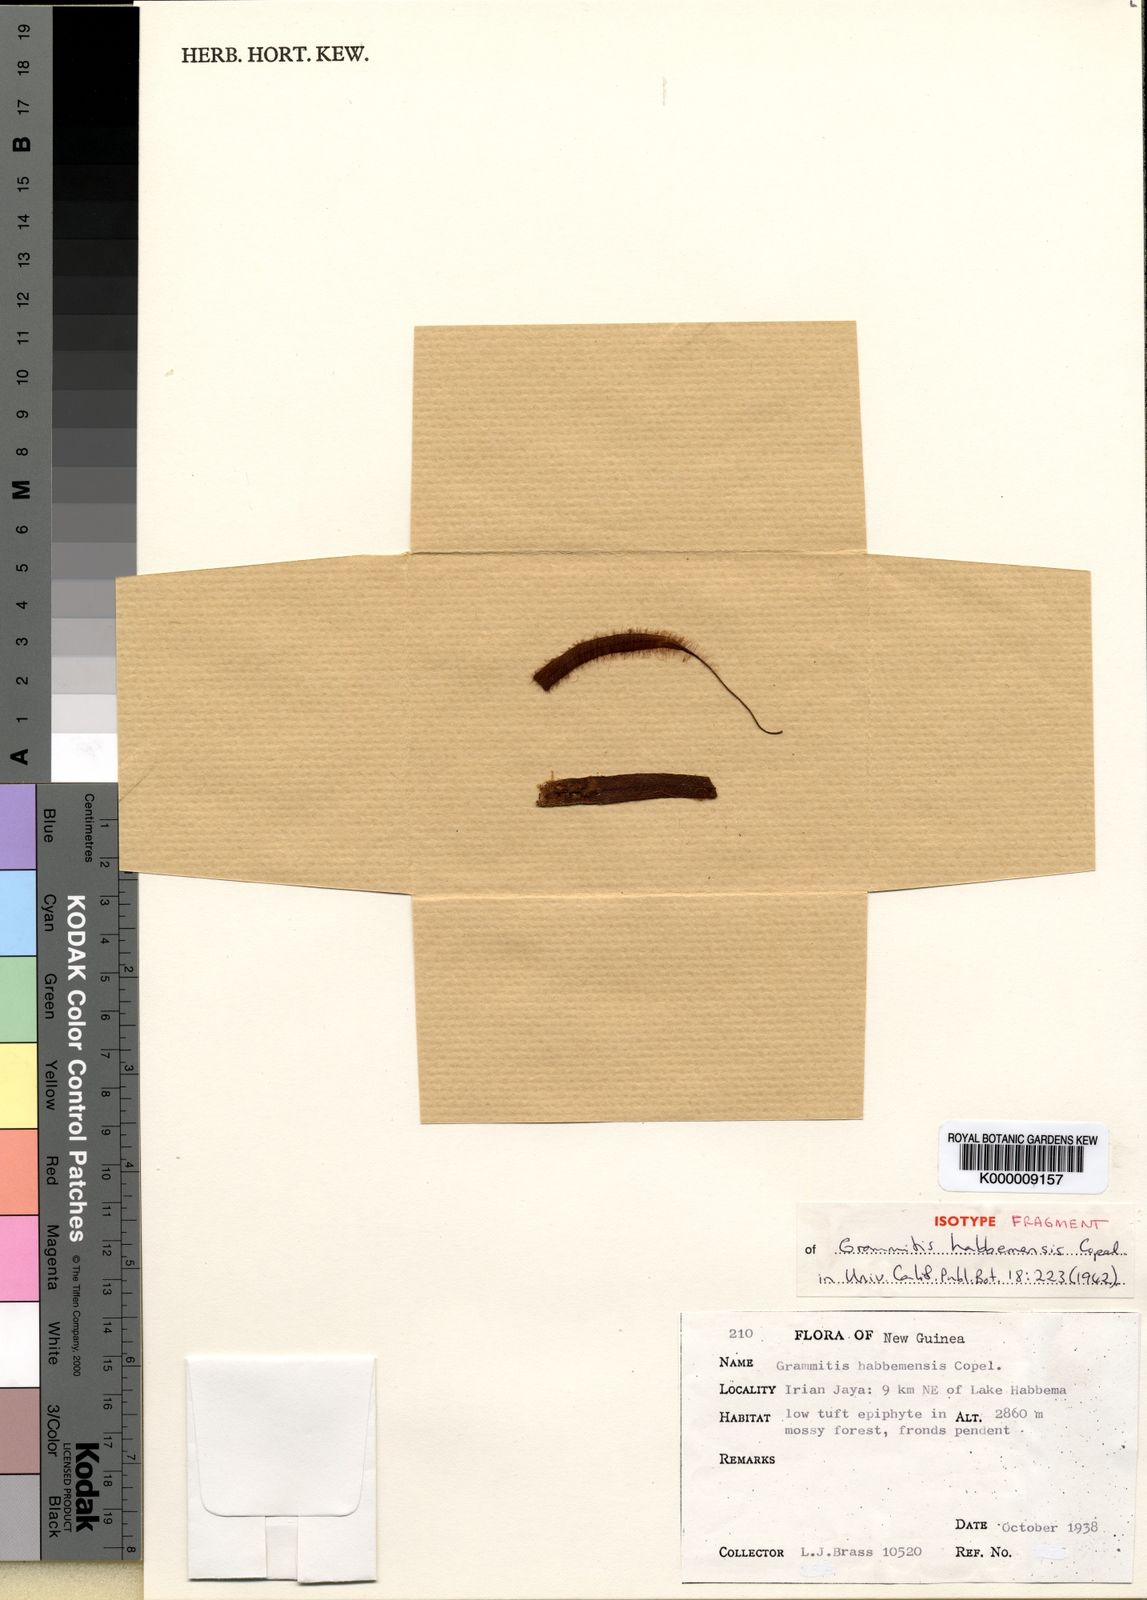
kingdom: Plantae
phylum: Tracheophyta
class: Polypodiopsida
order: Polypodiales
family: Polypodiaceae
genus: Oreogrammitis
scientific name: Oreogrammitis habbemensis
